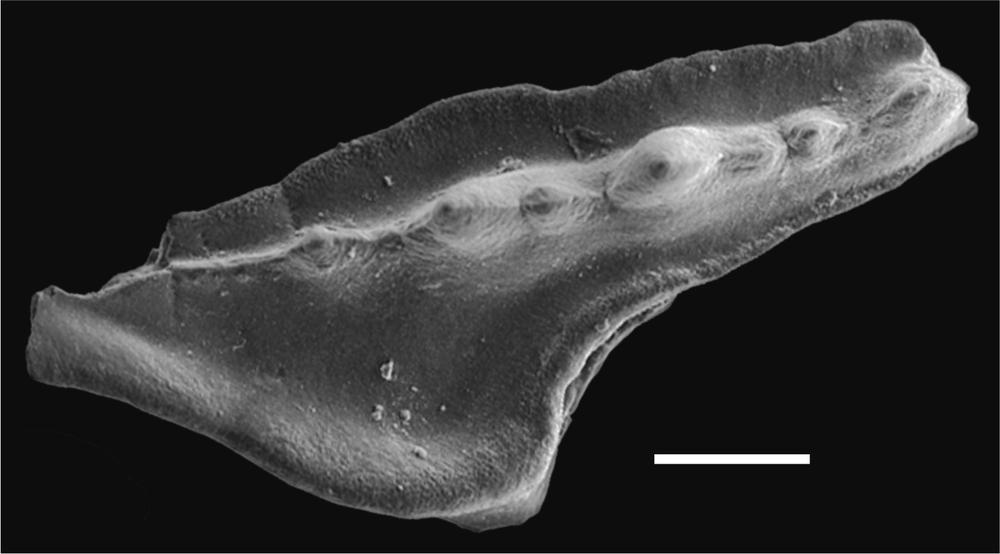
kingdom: Animalia
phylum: Chordata
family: Balognathidae
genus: Baltoniodus
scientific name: Baltoniodus
